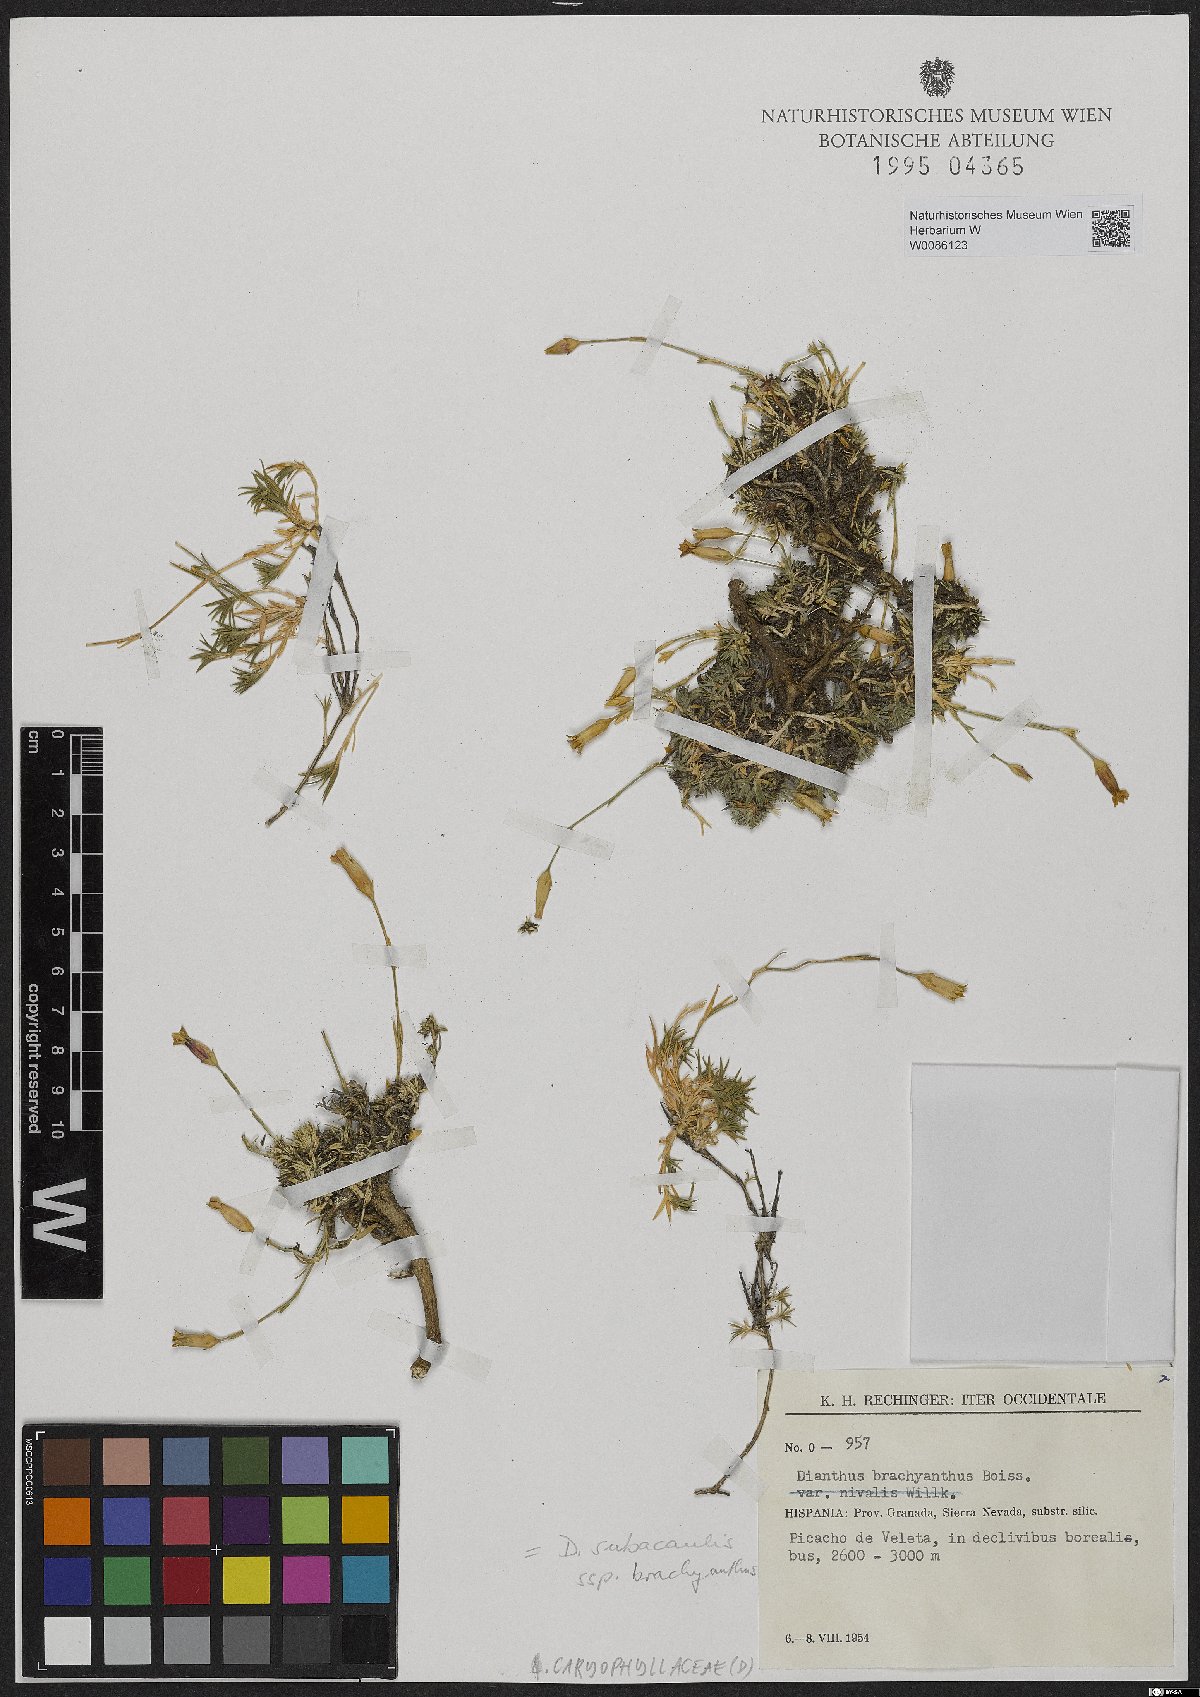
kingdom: Plantae
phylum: Tracheophyta
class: Magnoliopsida
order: Caryophyllales
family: Caryophyllaceae
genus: Dianthus
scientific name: Dianthus pungens
